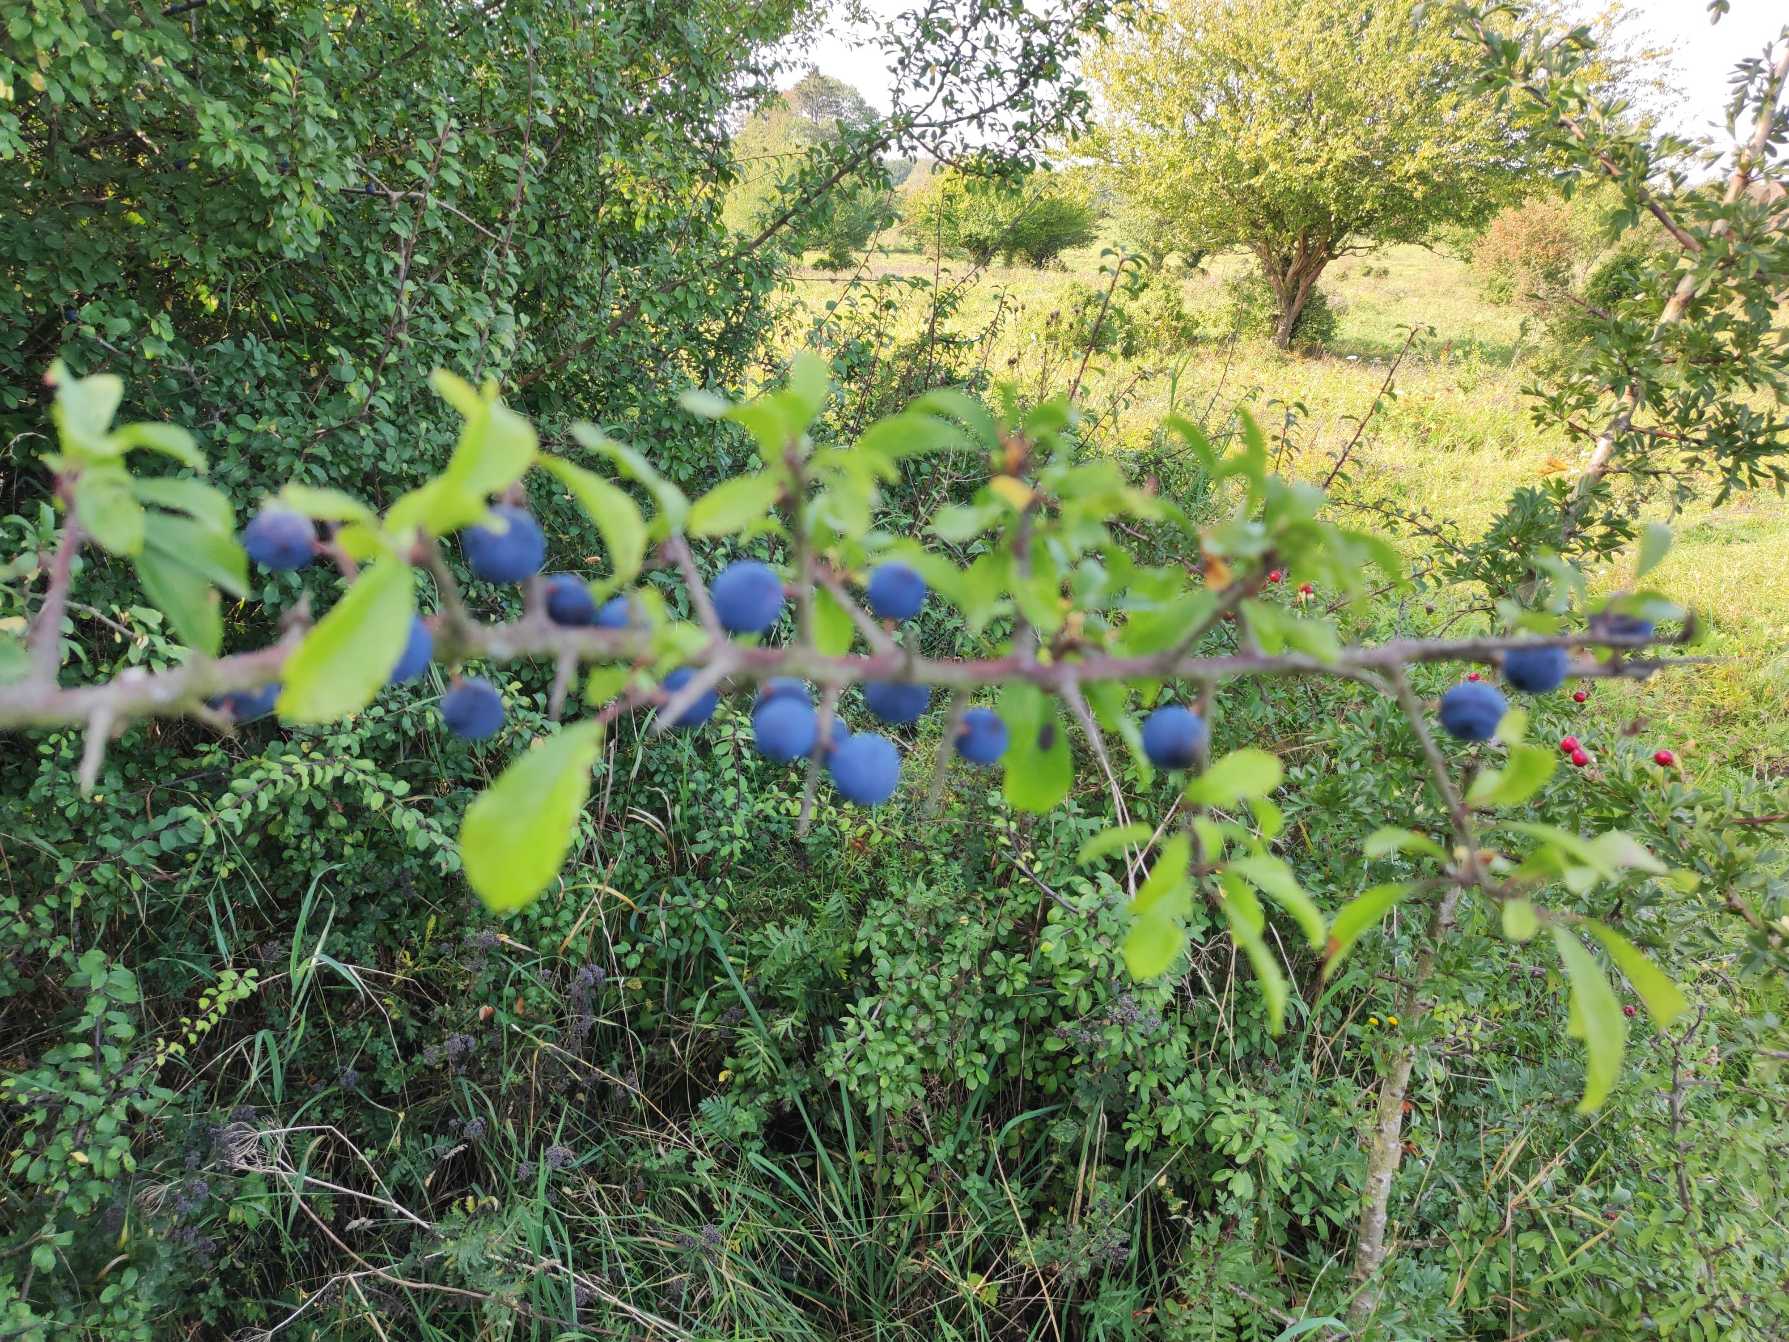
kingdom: Plantae
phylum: Tracheophyta
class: Magnoliopsida
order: Rosales
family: Rosaceae
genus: Prunus
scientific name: Prunus spinosa
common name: Slåen
